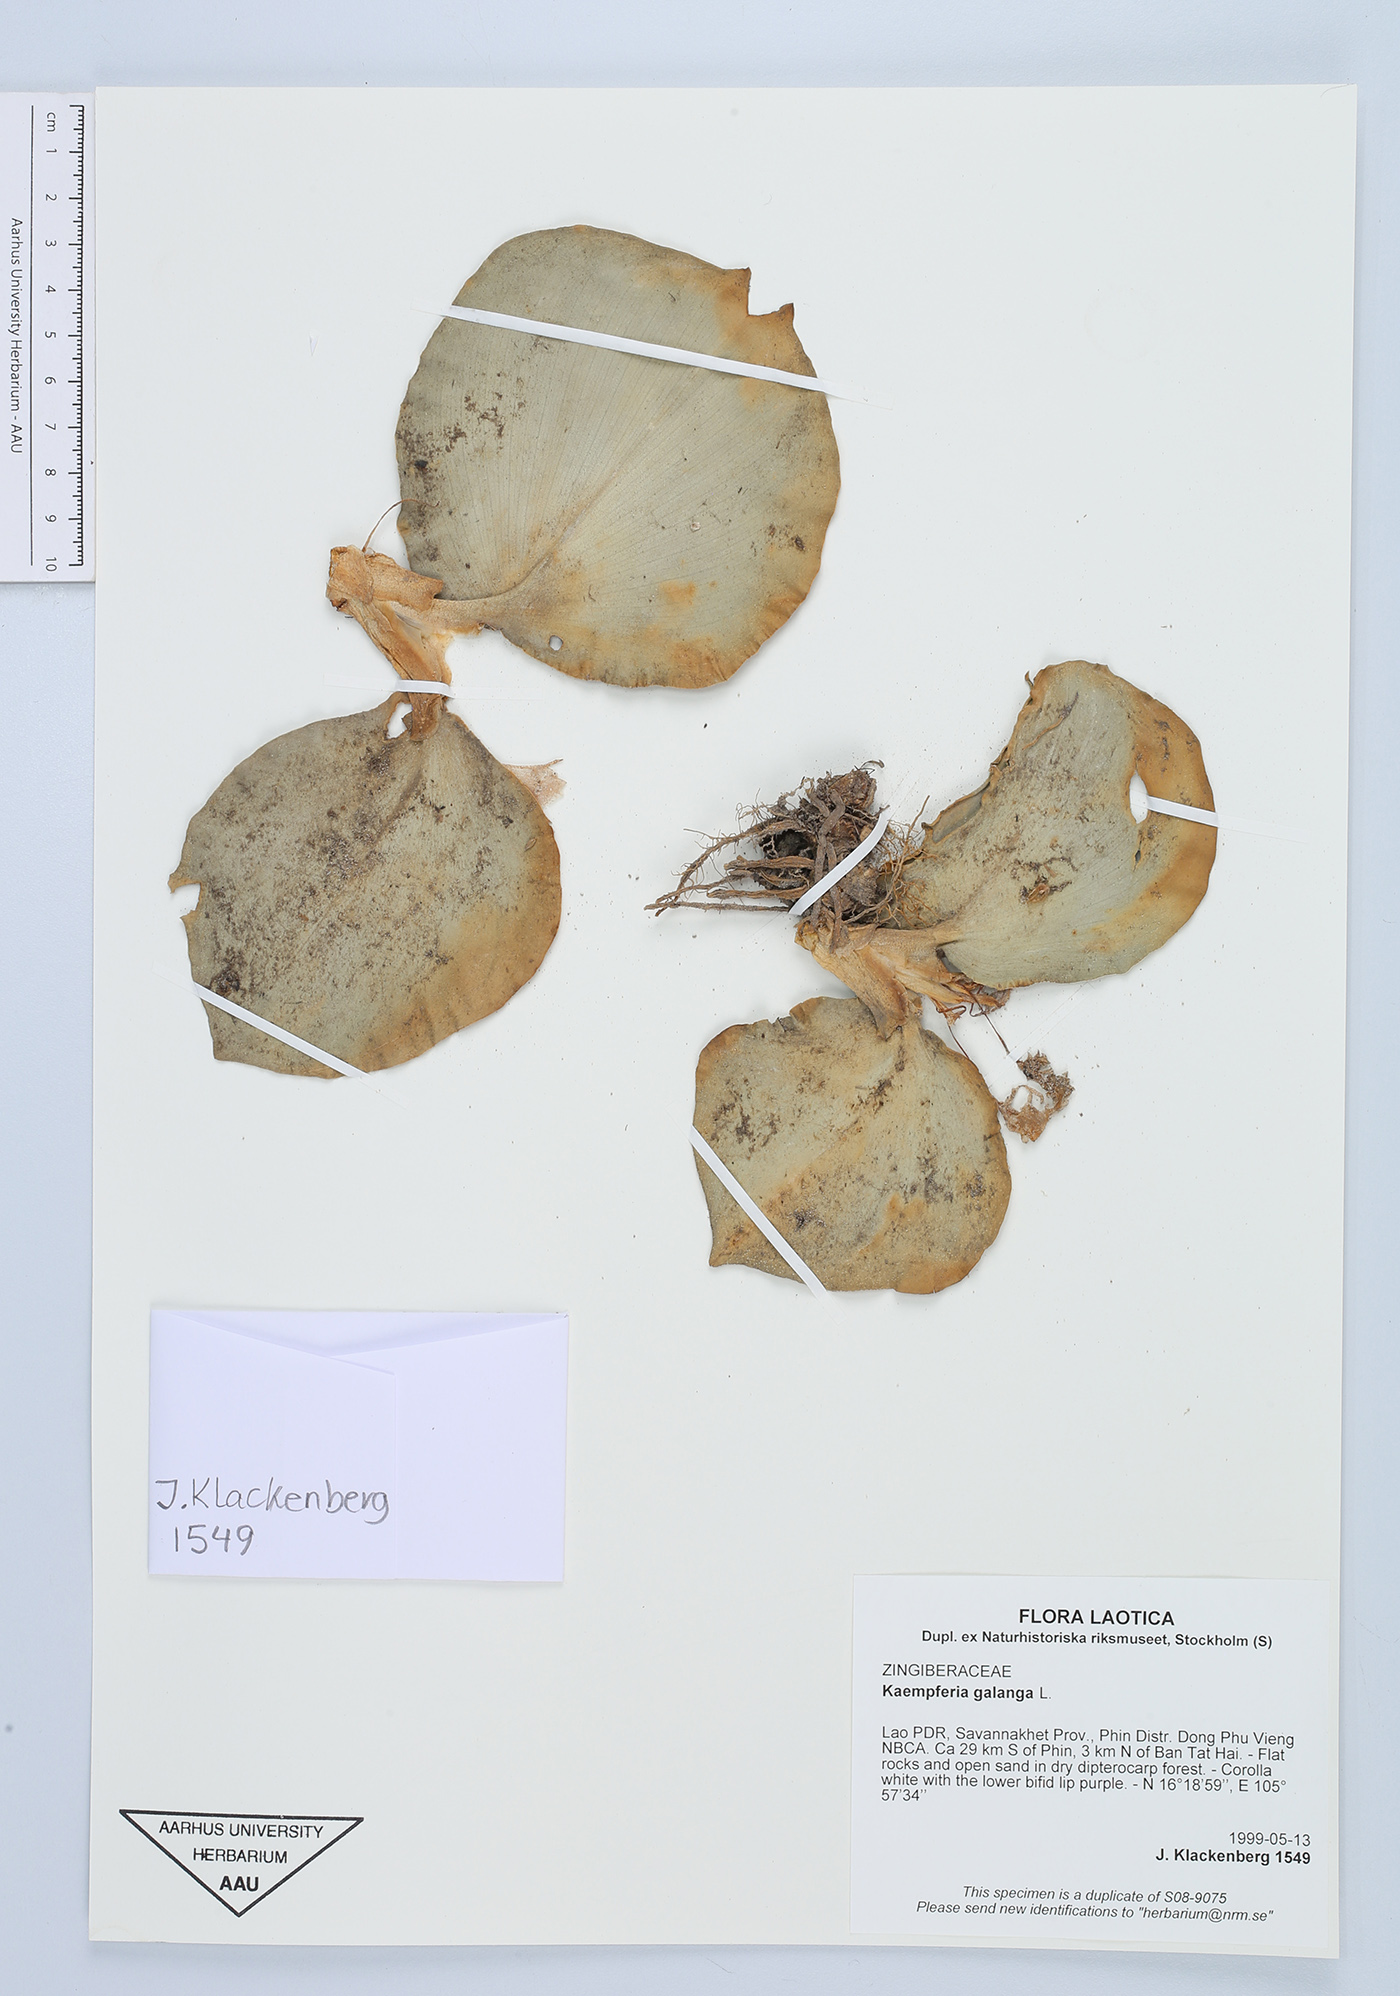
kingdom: Plantae
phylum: Tracheophyta
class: Liliopsida
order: Zingiberales
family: Zingiberaceae
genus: Kaempferia
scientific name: Kaempferia galanga
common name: Aromatic ginger
